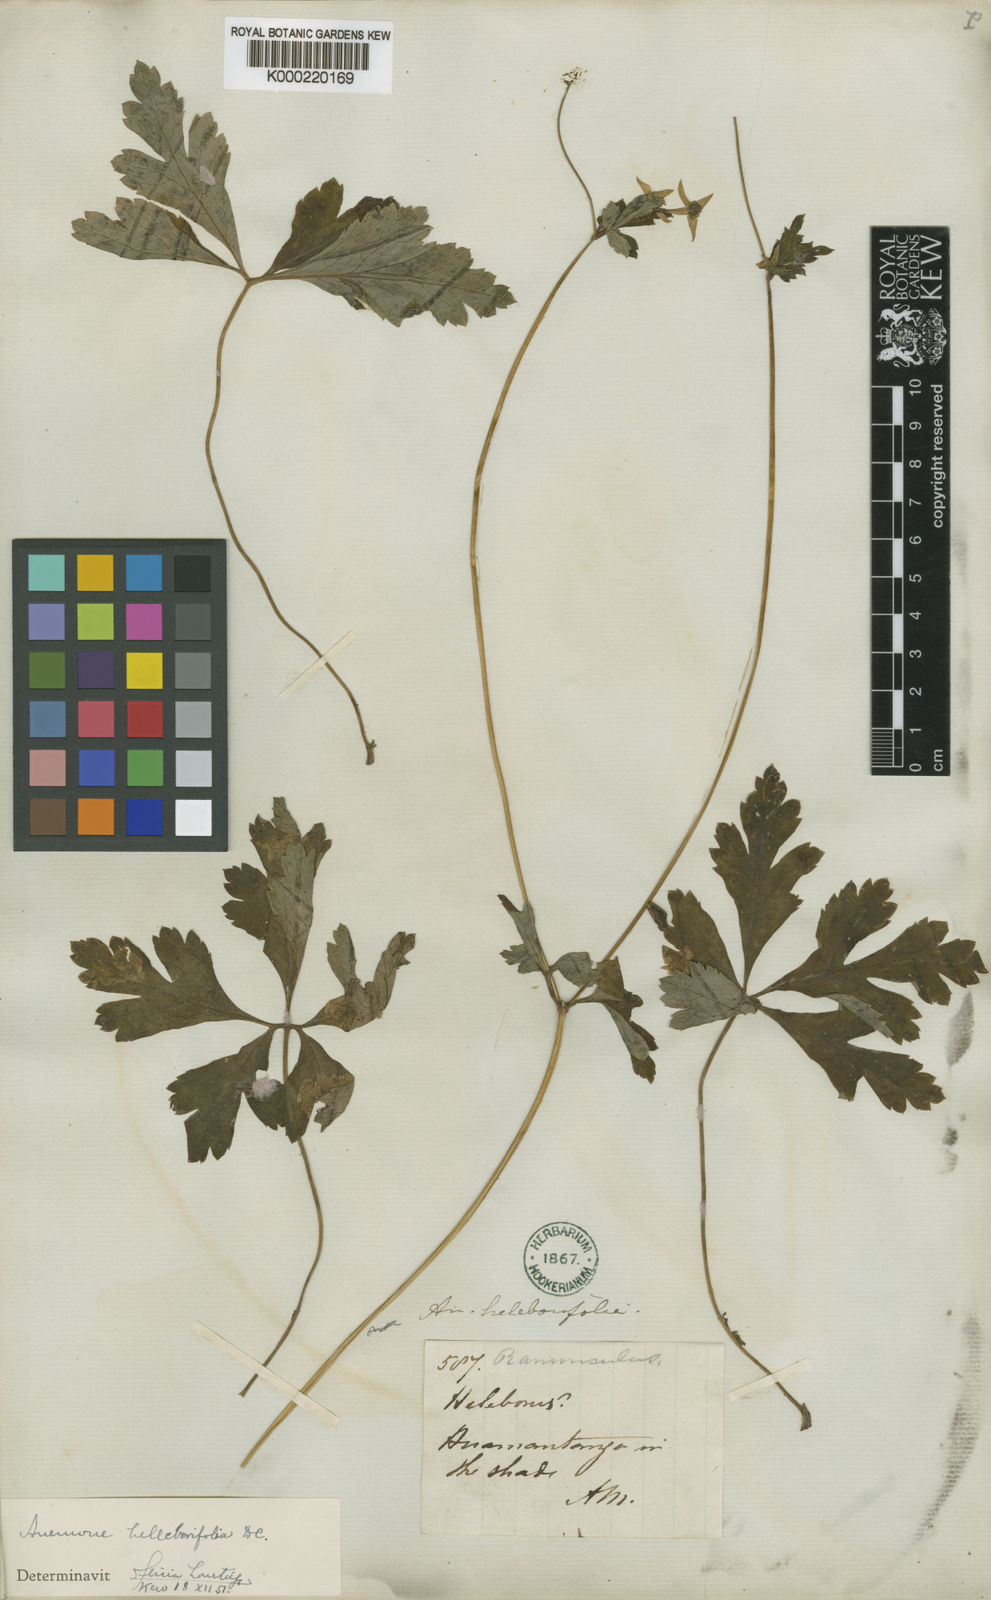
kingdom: Plantae
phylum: Tracheophyta
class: Magnoliopsida
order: Ranunculales
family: Ranunculaceae
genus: Knowltonia
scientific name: Knowltonia helleborifolia
